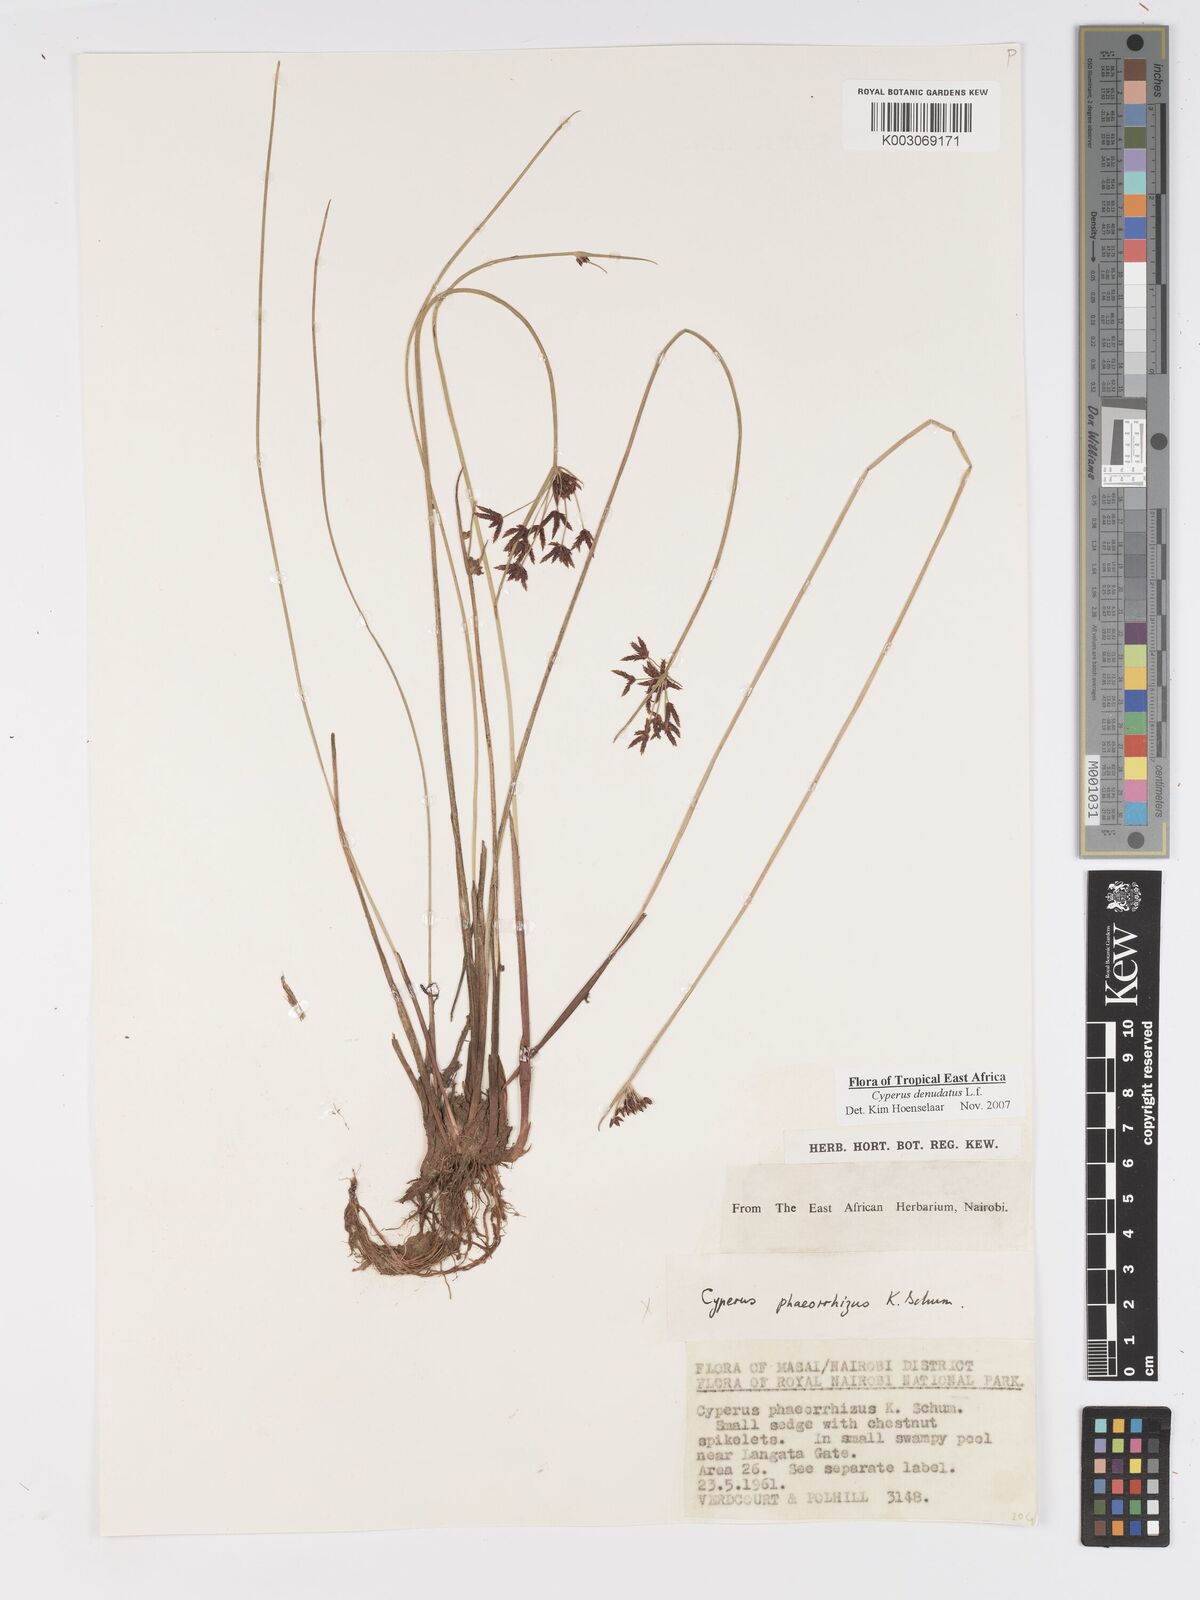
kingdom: Plantae
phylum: Tracheophyta
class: Liliopsida
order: Poales
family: Cyperaceae
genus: Cyperus
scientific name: Cyperus platycaulis
